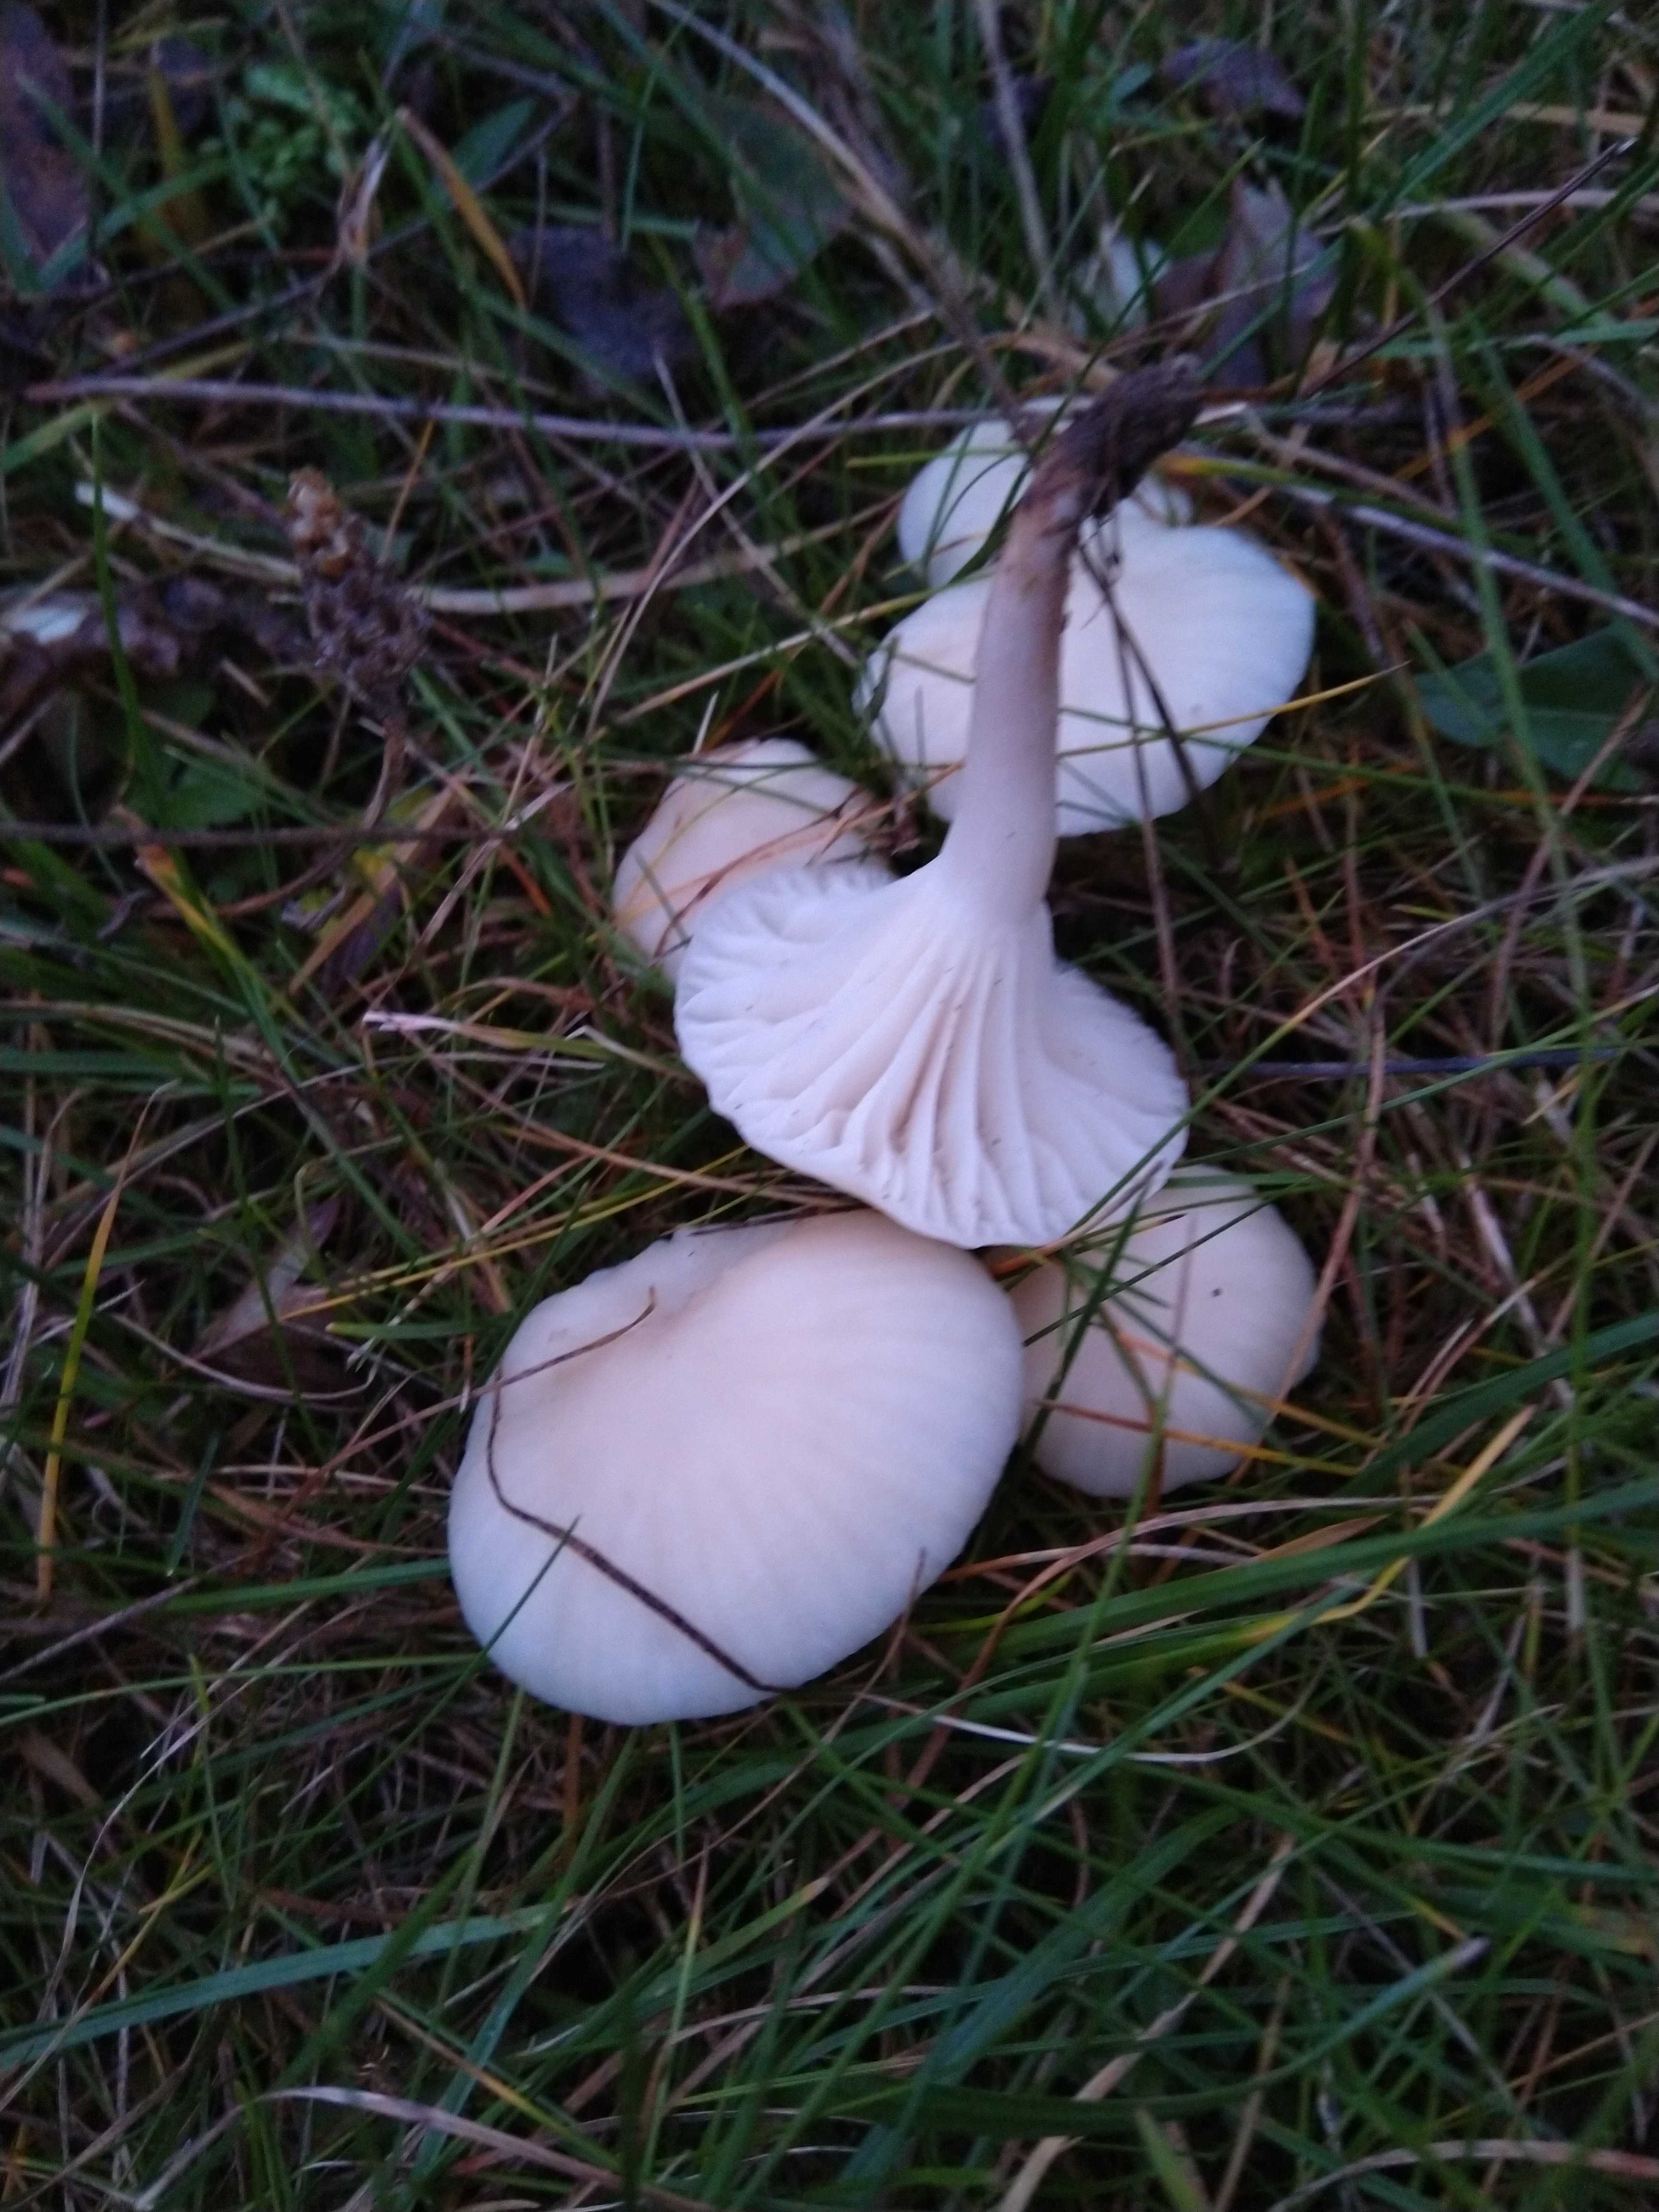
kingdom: Fungi
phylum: Basidiomycota
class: Agaricomycetes
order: Agaricales
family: Hygrophoraceae
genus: Cuphophyllus
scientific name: Cuphophyllus virgineus
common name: snehvid vokshat
